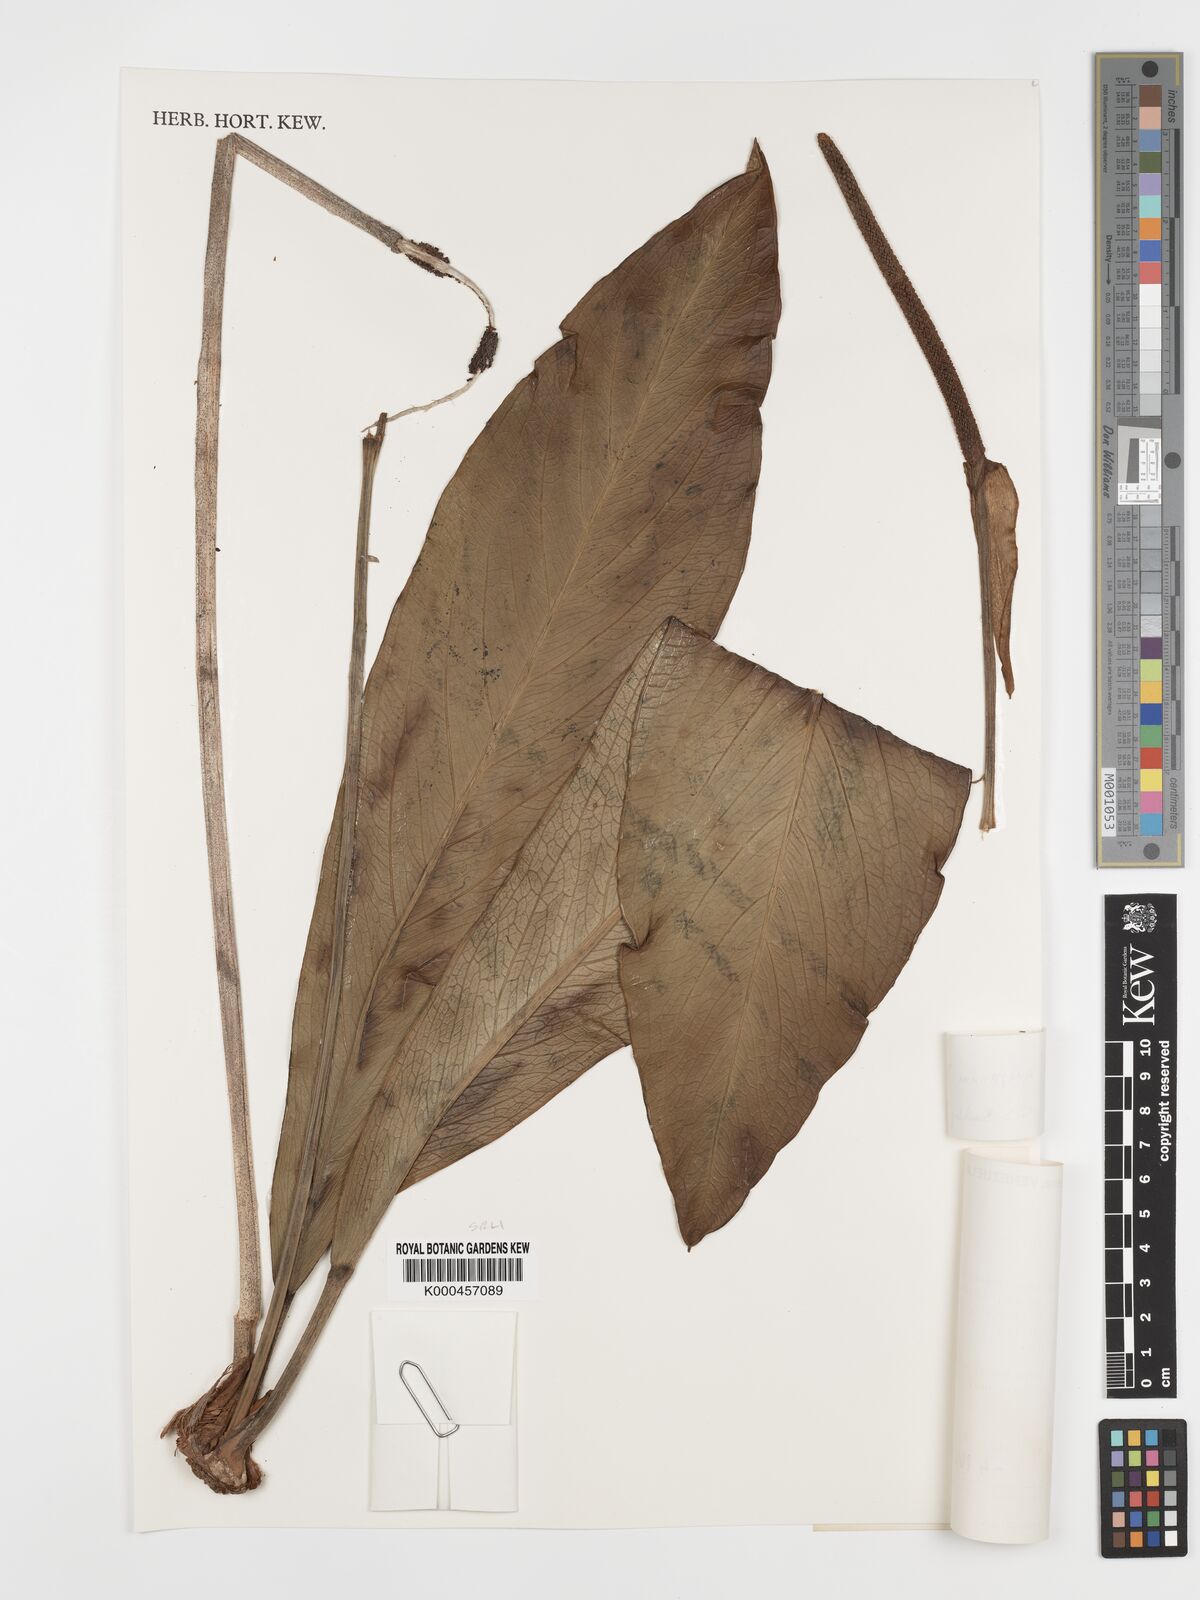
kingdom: Plantae
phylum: Tracheophyta
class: Liliopsida
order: Alismatales
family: Araceae
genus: Anthurium
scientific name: Anthurium bonplandii
